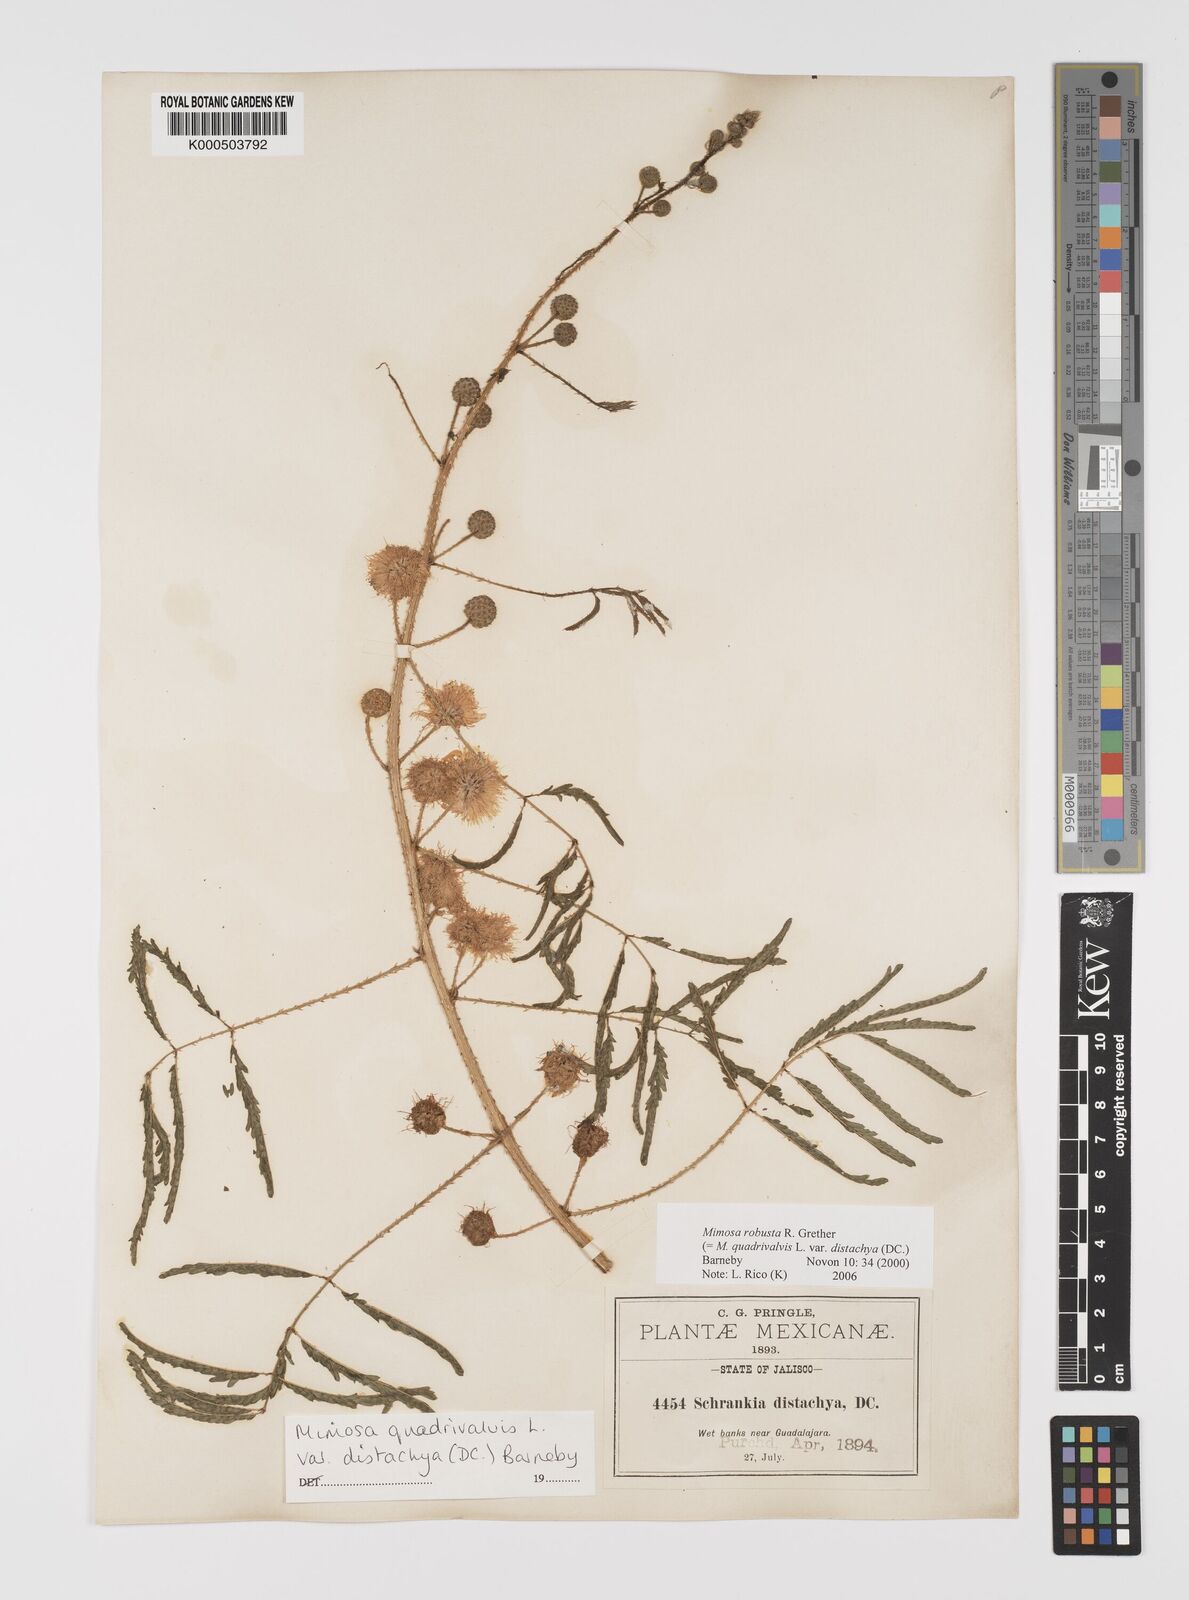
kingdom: Plantae
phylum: Tracheophyta
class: Magnoliopsida
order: Fabales
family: Fabaceae
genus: Mimosa
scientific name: Mimosa robusta
